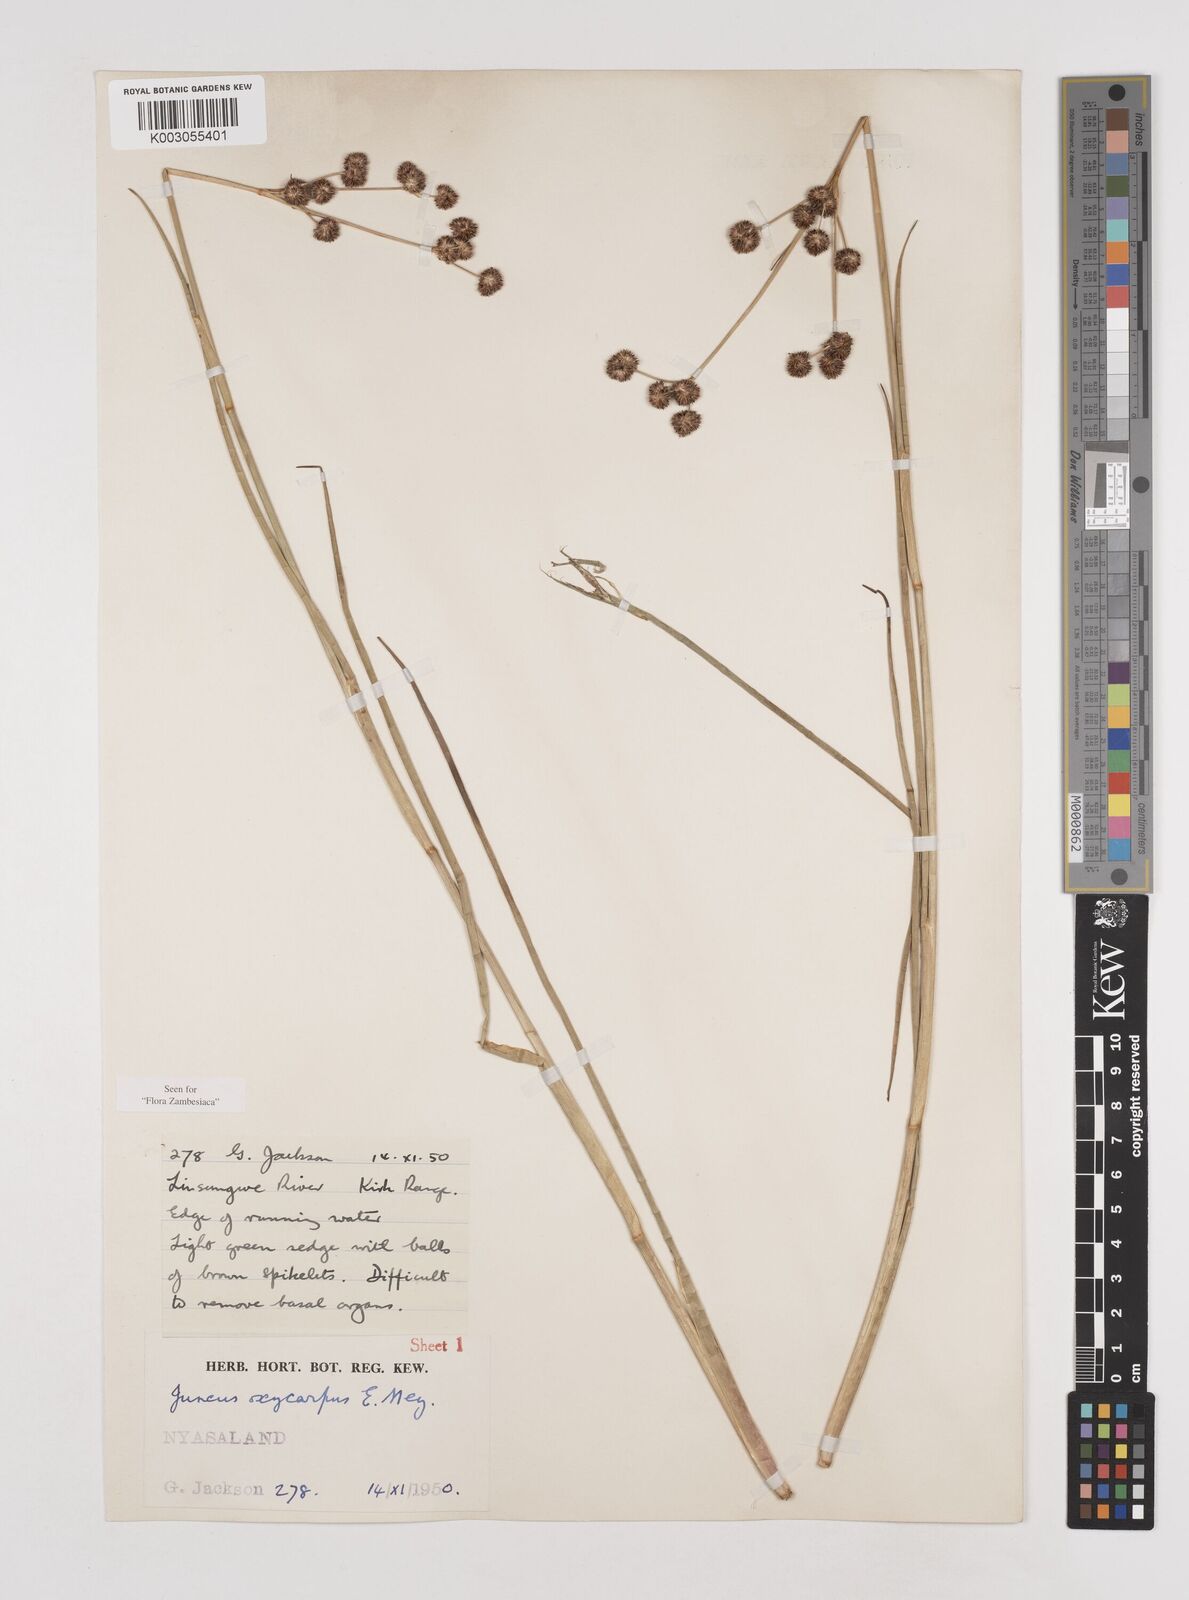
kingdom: Plantae
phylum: Tracheophyta
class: Liliopsida
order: Poales
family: Juncaceae
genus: Juncus
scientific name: Juncus oxycarpus
